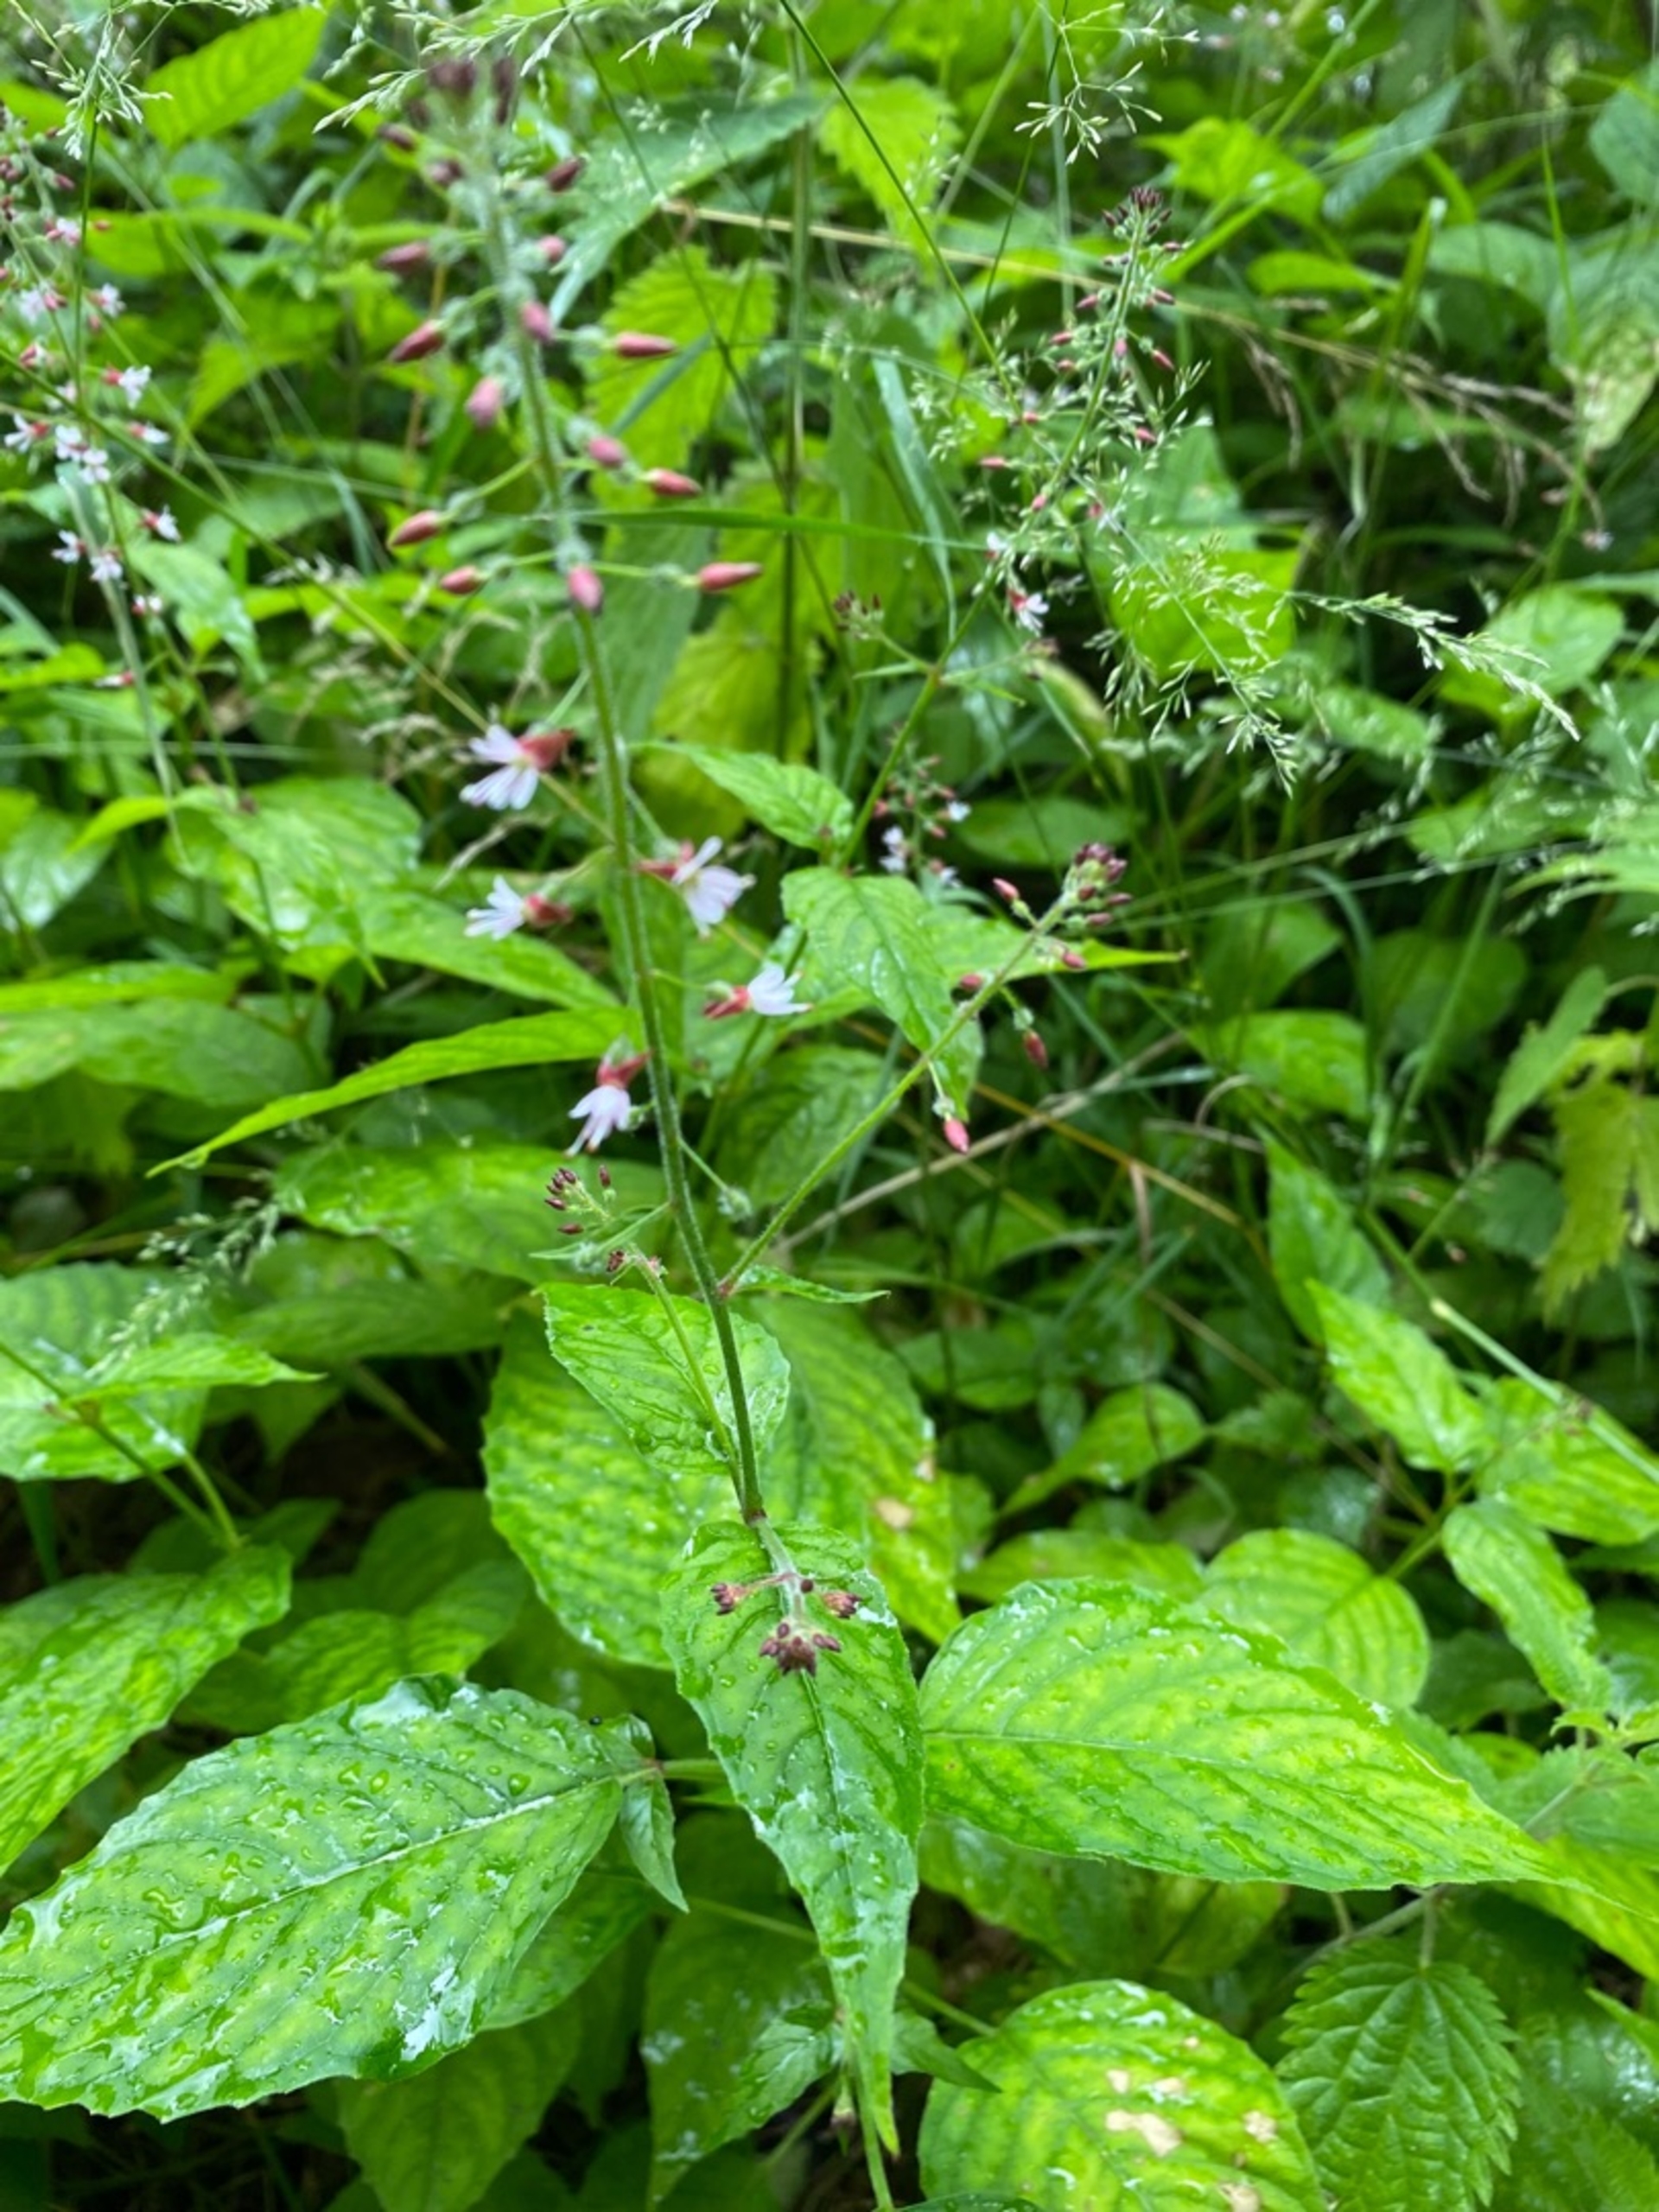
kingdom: Plantae
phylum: Tracheophyta
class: Magnoliopsida
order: Myrtales
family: Onagraceae
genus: Circaea
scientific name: Circaea lutetiana
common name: Dunet steffensurt
